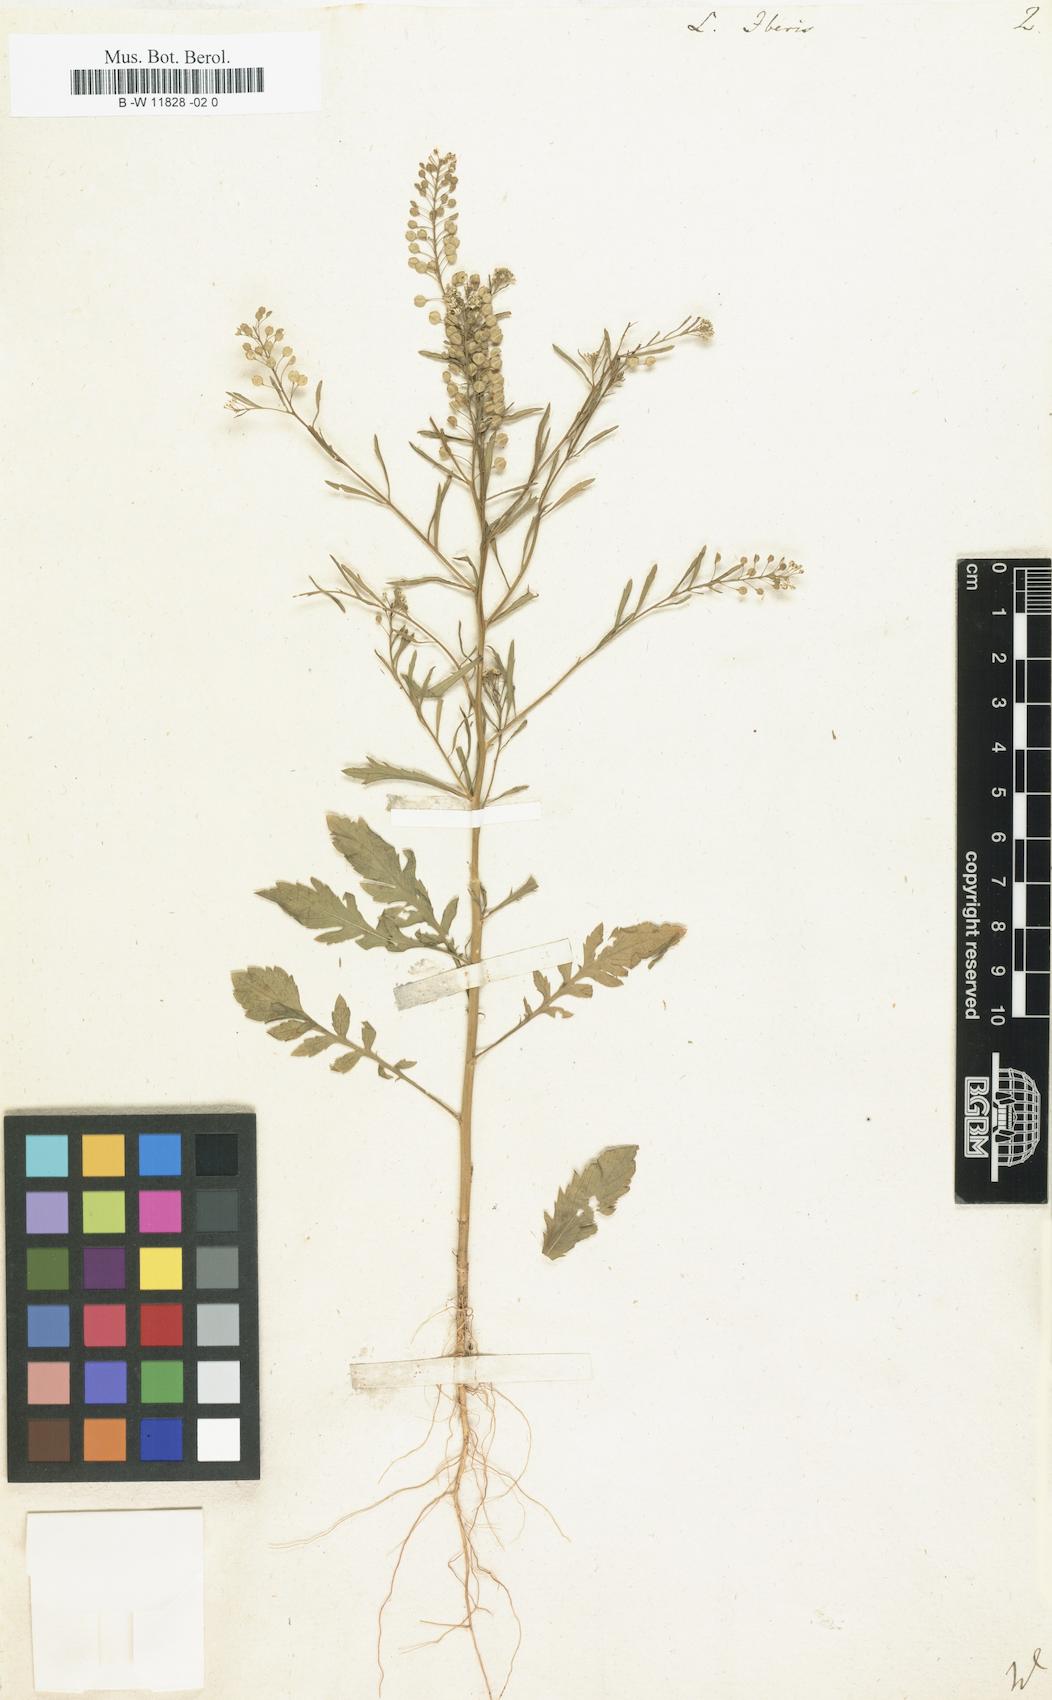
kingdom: Plantae
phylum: Tracheophyta
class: Magnoliopsida
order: Brassicales
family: Brassicaceae
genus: Lepidium
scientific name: Lepidium graminifolium
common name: Tall pepperwort
